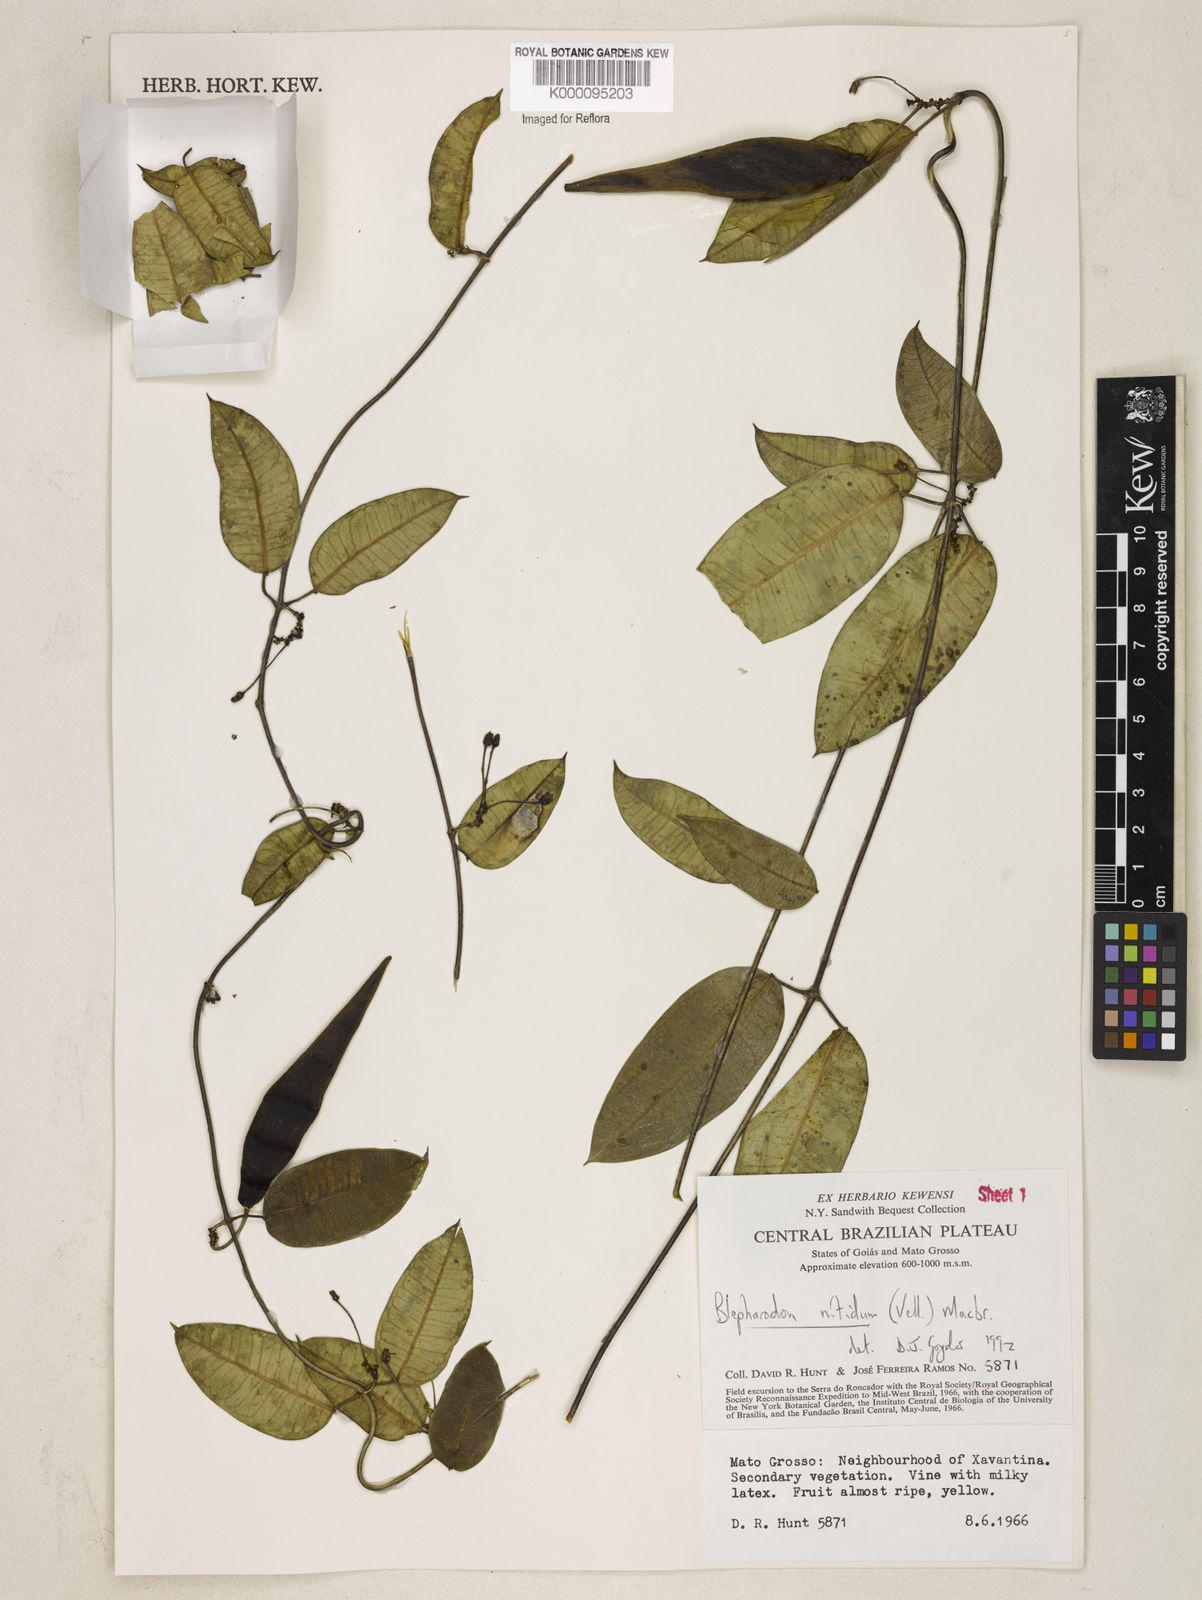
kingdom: Plantae
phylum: Tracheophyta
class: Magnoliopsida
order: Gentianales
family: Apocynaceae
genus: Blepharodon
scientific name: Blepharodon pictum
